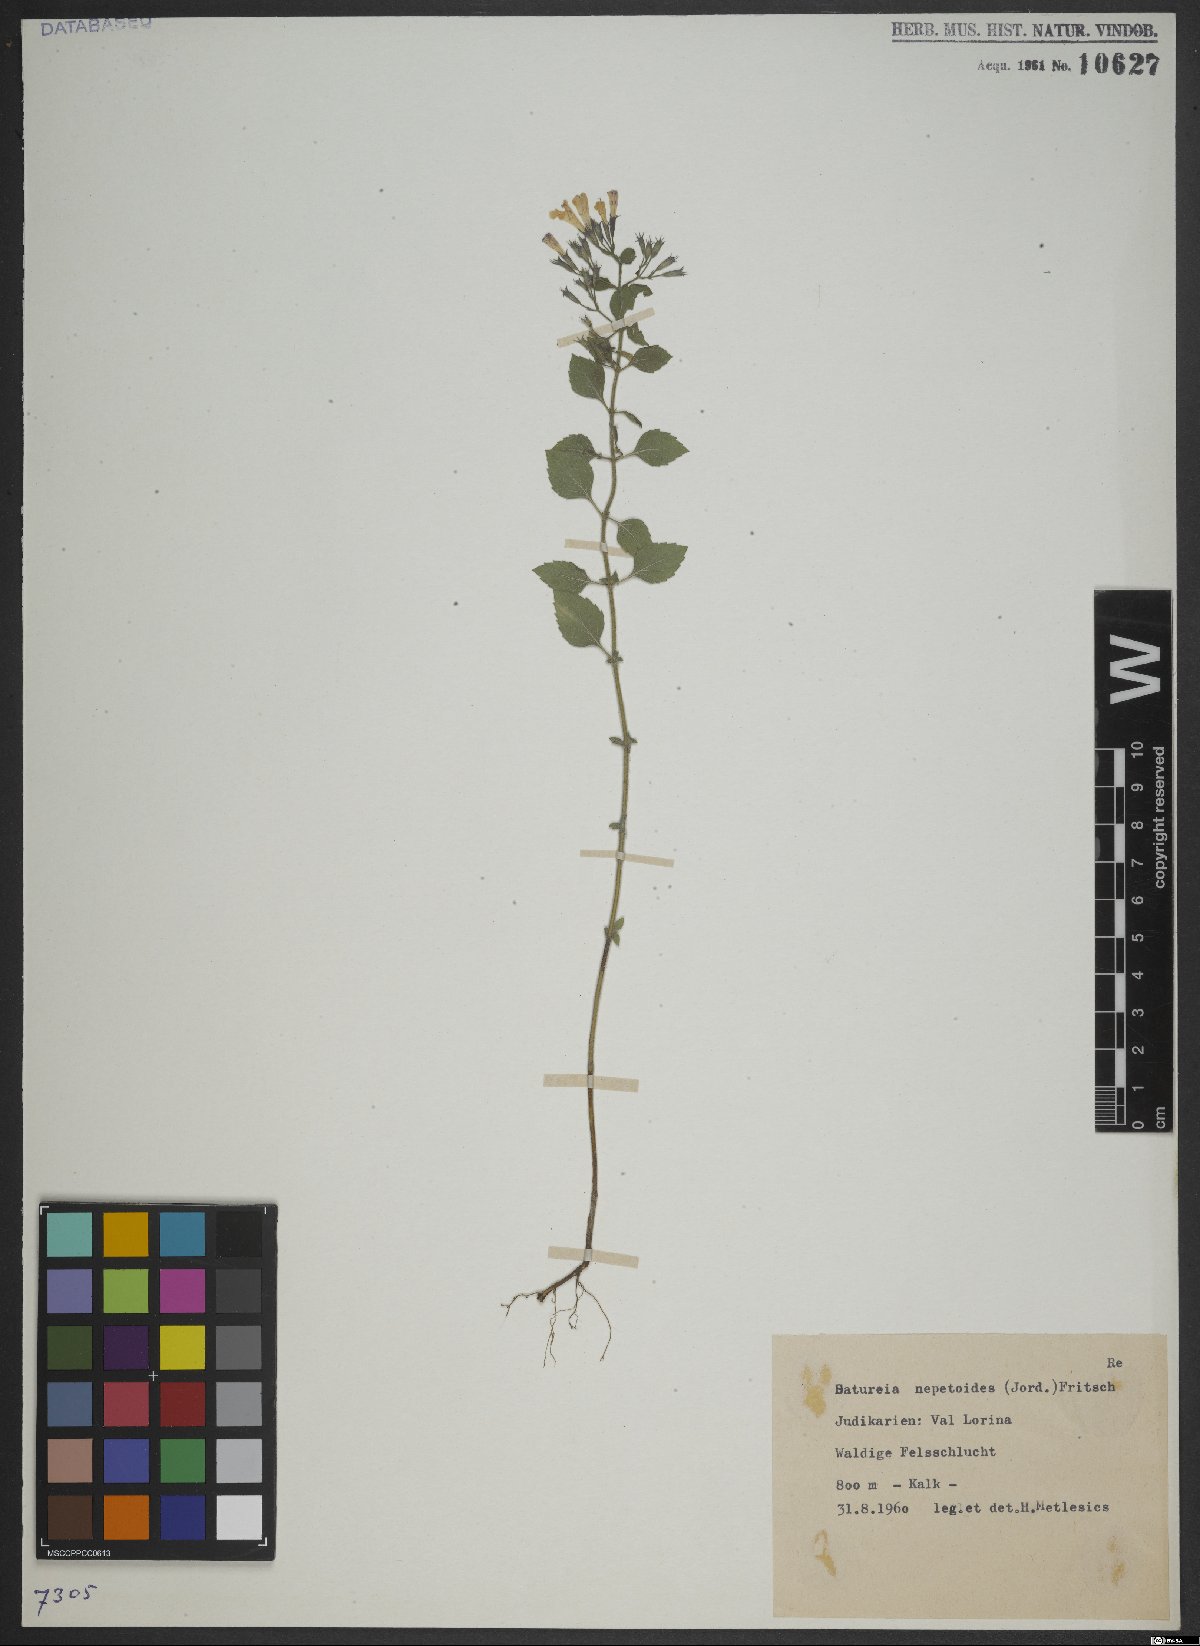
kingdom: Plantae
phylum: Tracheophyta
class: Magnoliopsida
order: Lamiales
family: Lamiaceae
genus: Clinopodium
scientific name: Clinopodium nepeta
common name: Lesser calamint
